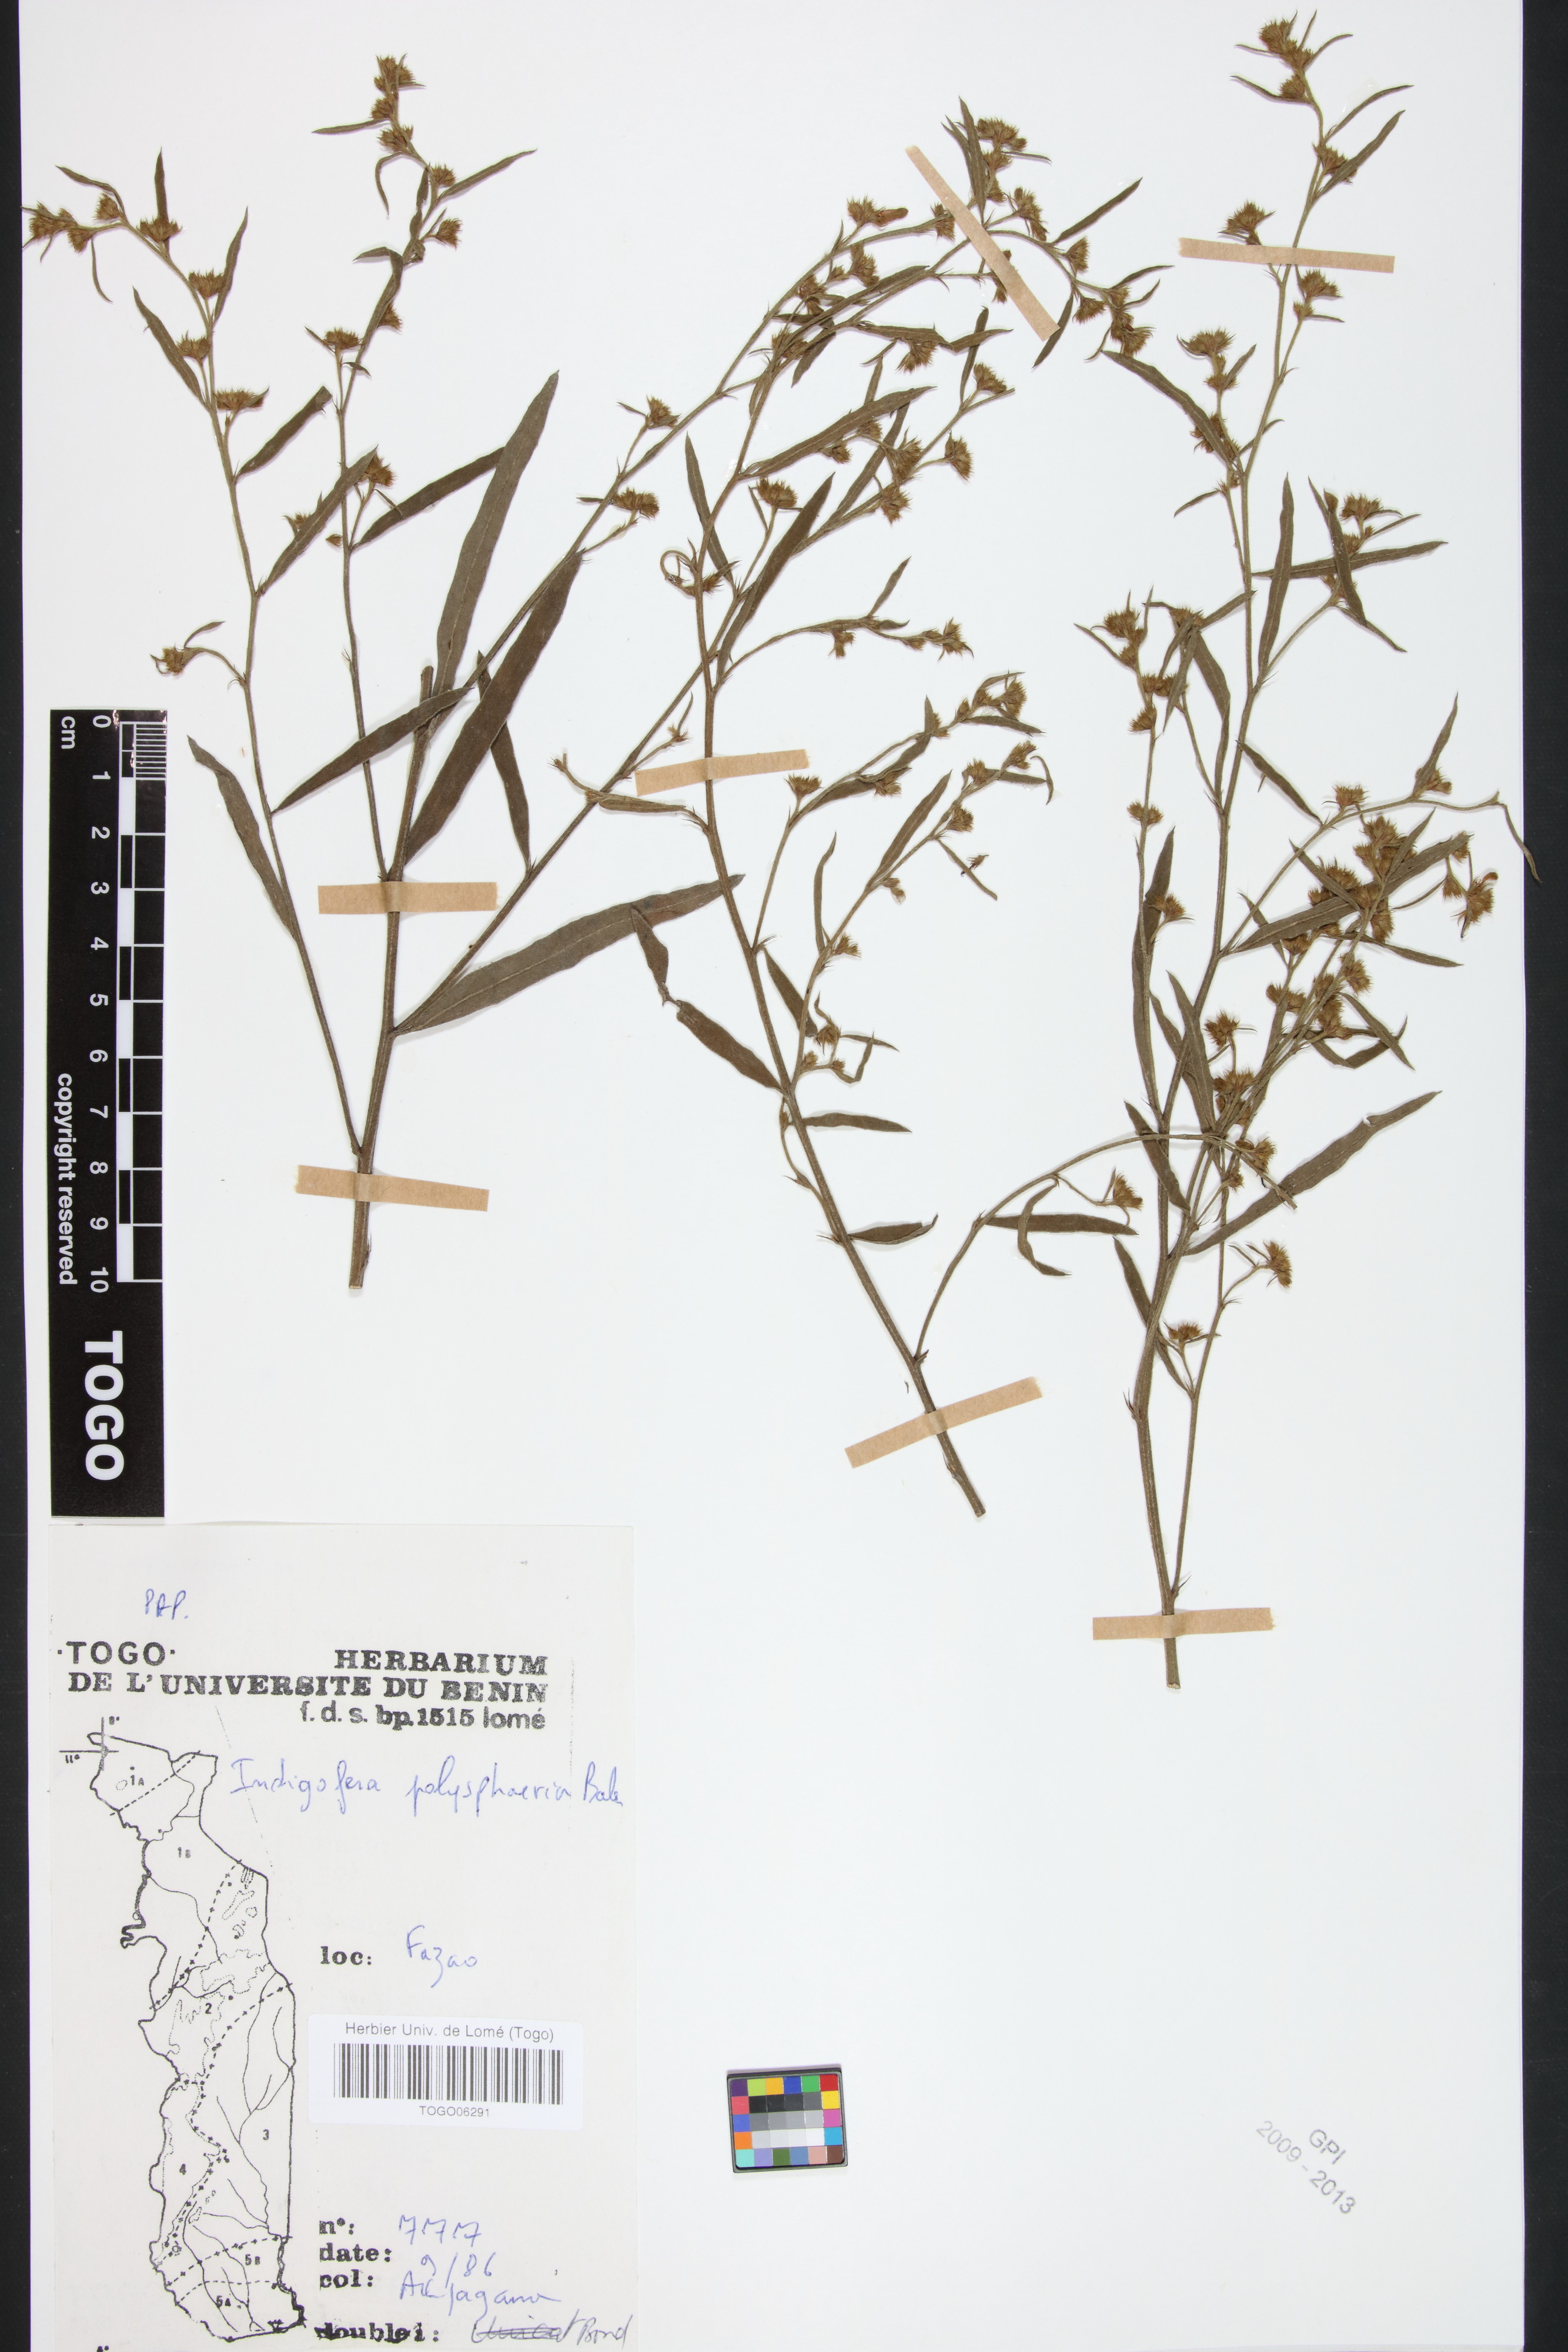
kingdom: Plantae
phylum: Tracheophyta
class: Magnoliopsida
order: Fabales
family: Fabaceae
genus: Indigofera
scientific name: Indigofera polysphaera
